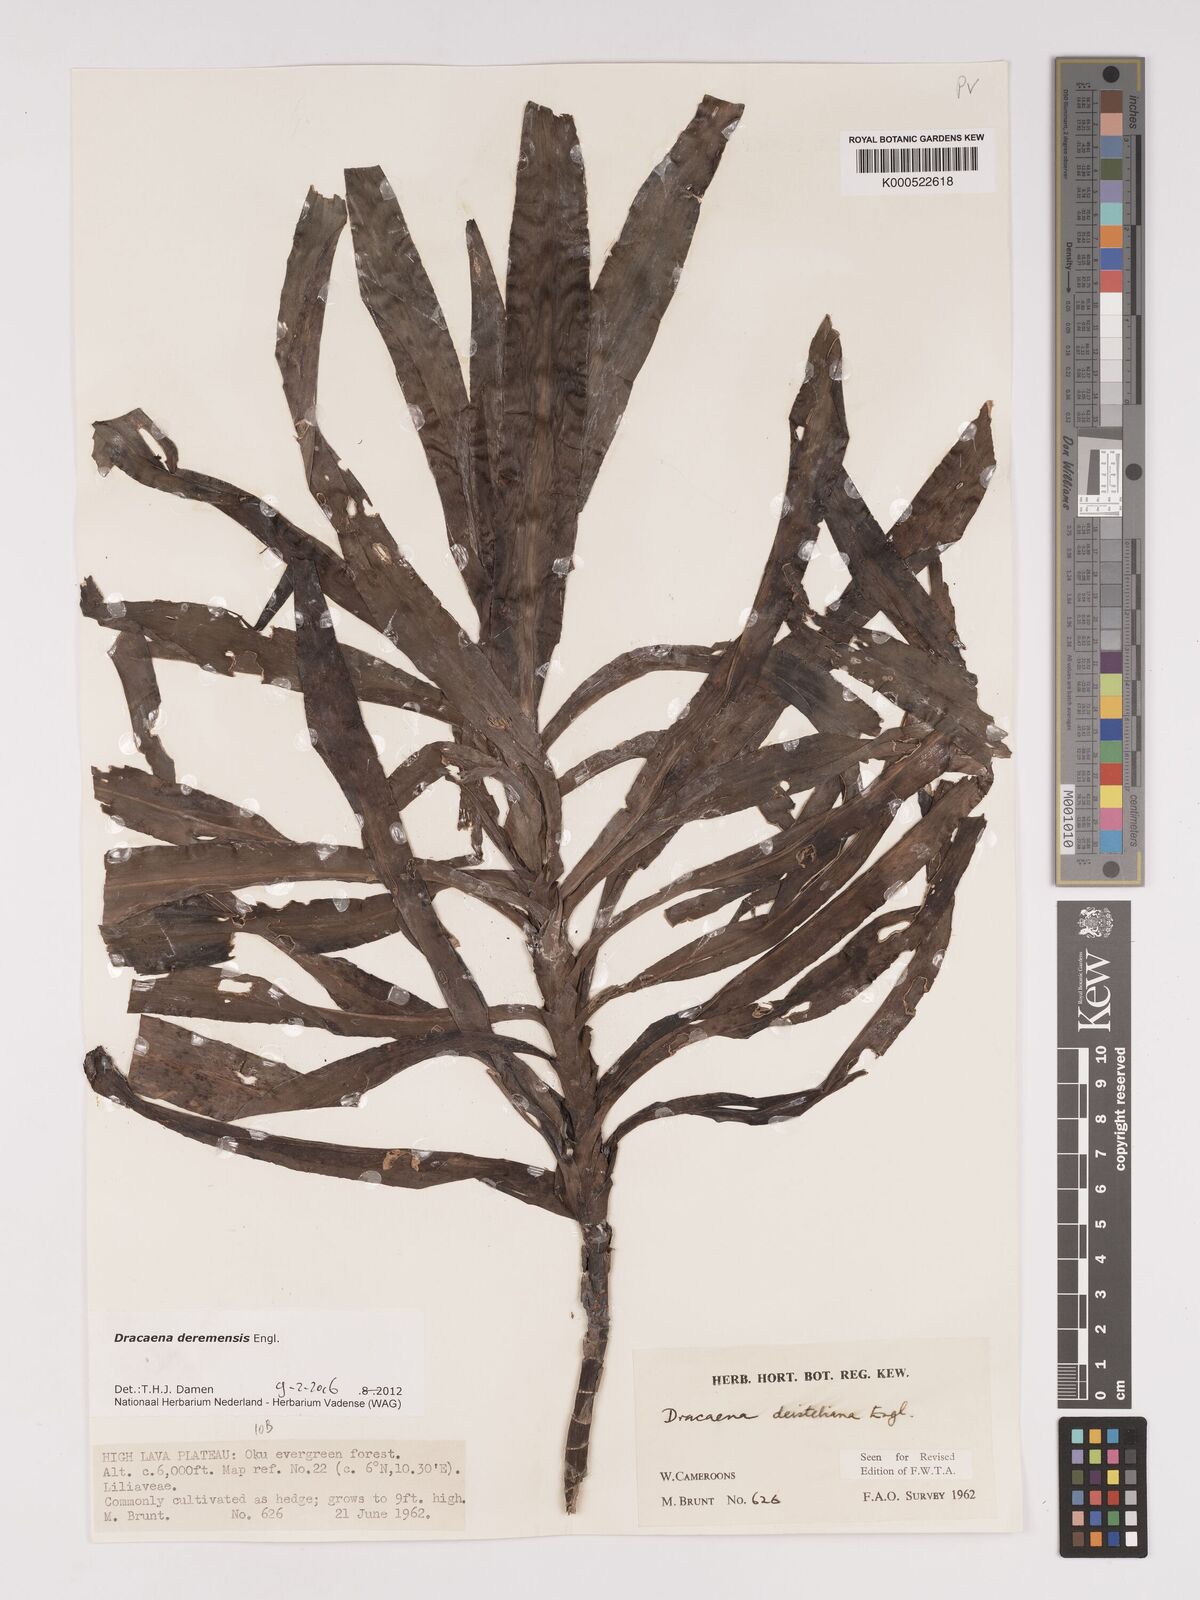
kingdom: Plantae
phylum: Tracheophyta
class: Liliopsida
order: Asparagales
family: Asparagaceae
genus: Dracaena
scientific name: Dracaena fragrans
